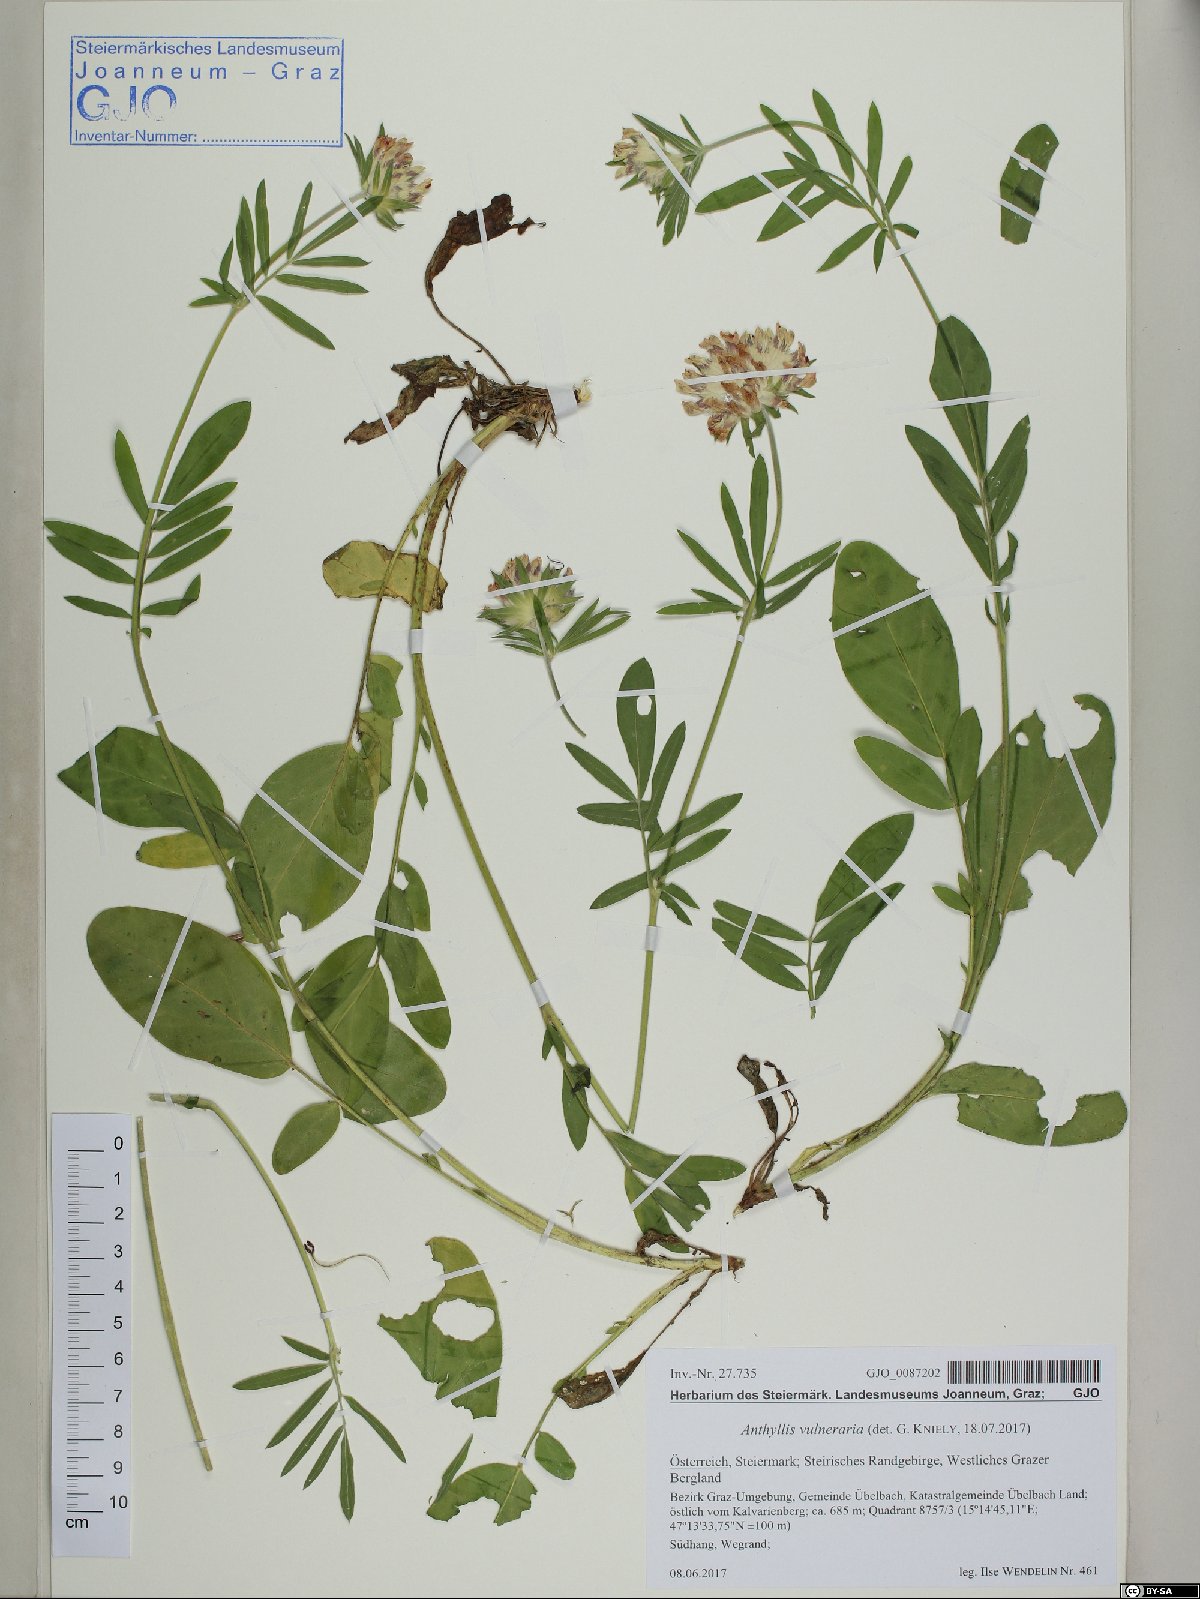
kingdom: Plantae
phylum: Tracheophyta
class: Magnoliopsida
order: Fabales
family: Fabaceae
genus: Anthyllis
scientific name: Anthyllis vulneraria
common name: Kidney vetch
